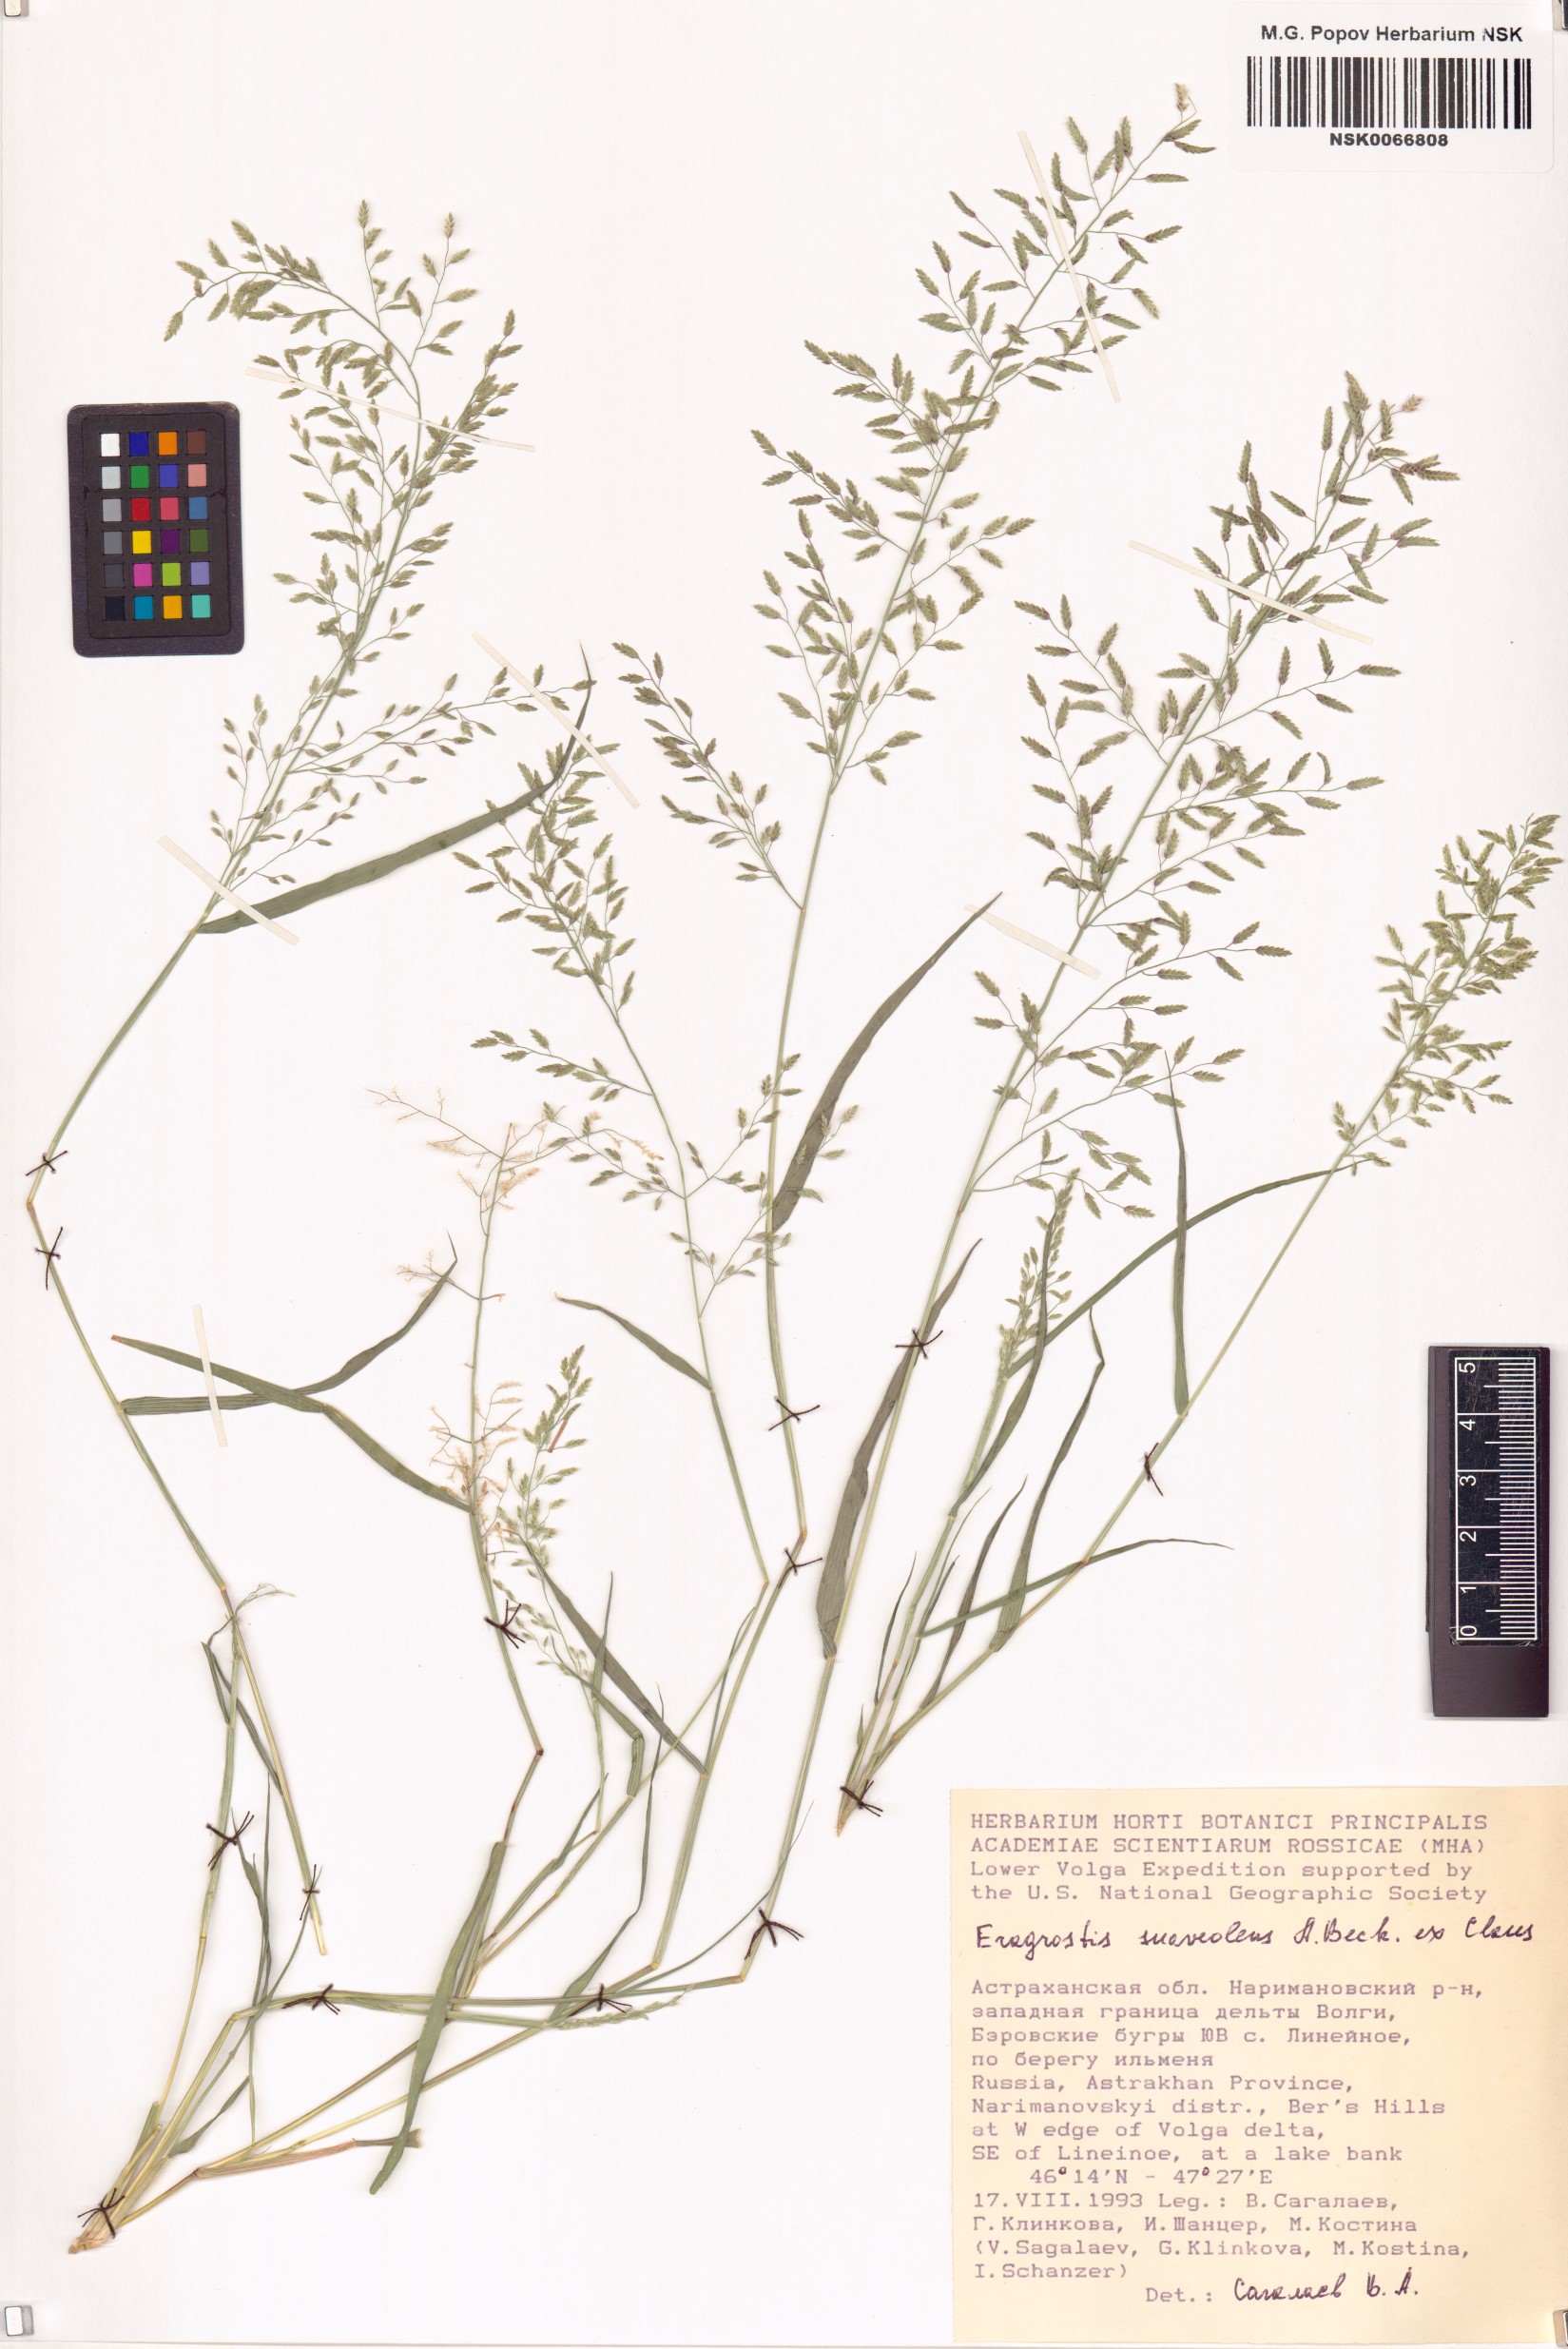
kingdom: Plantae
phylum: Tracheophyta
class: Liliopsida
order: Poales
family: Poaceae
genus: Eragrostis
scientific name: Eragrostis minor
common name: Small love-grass
